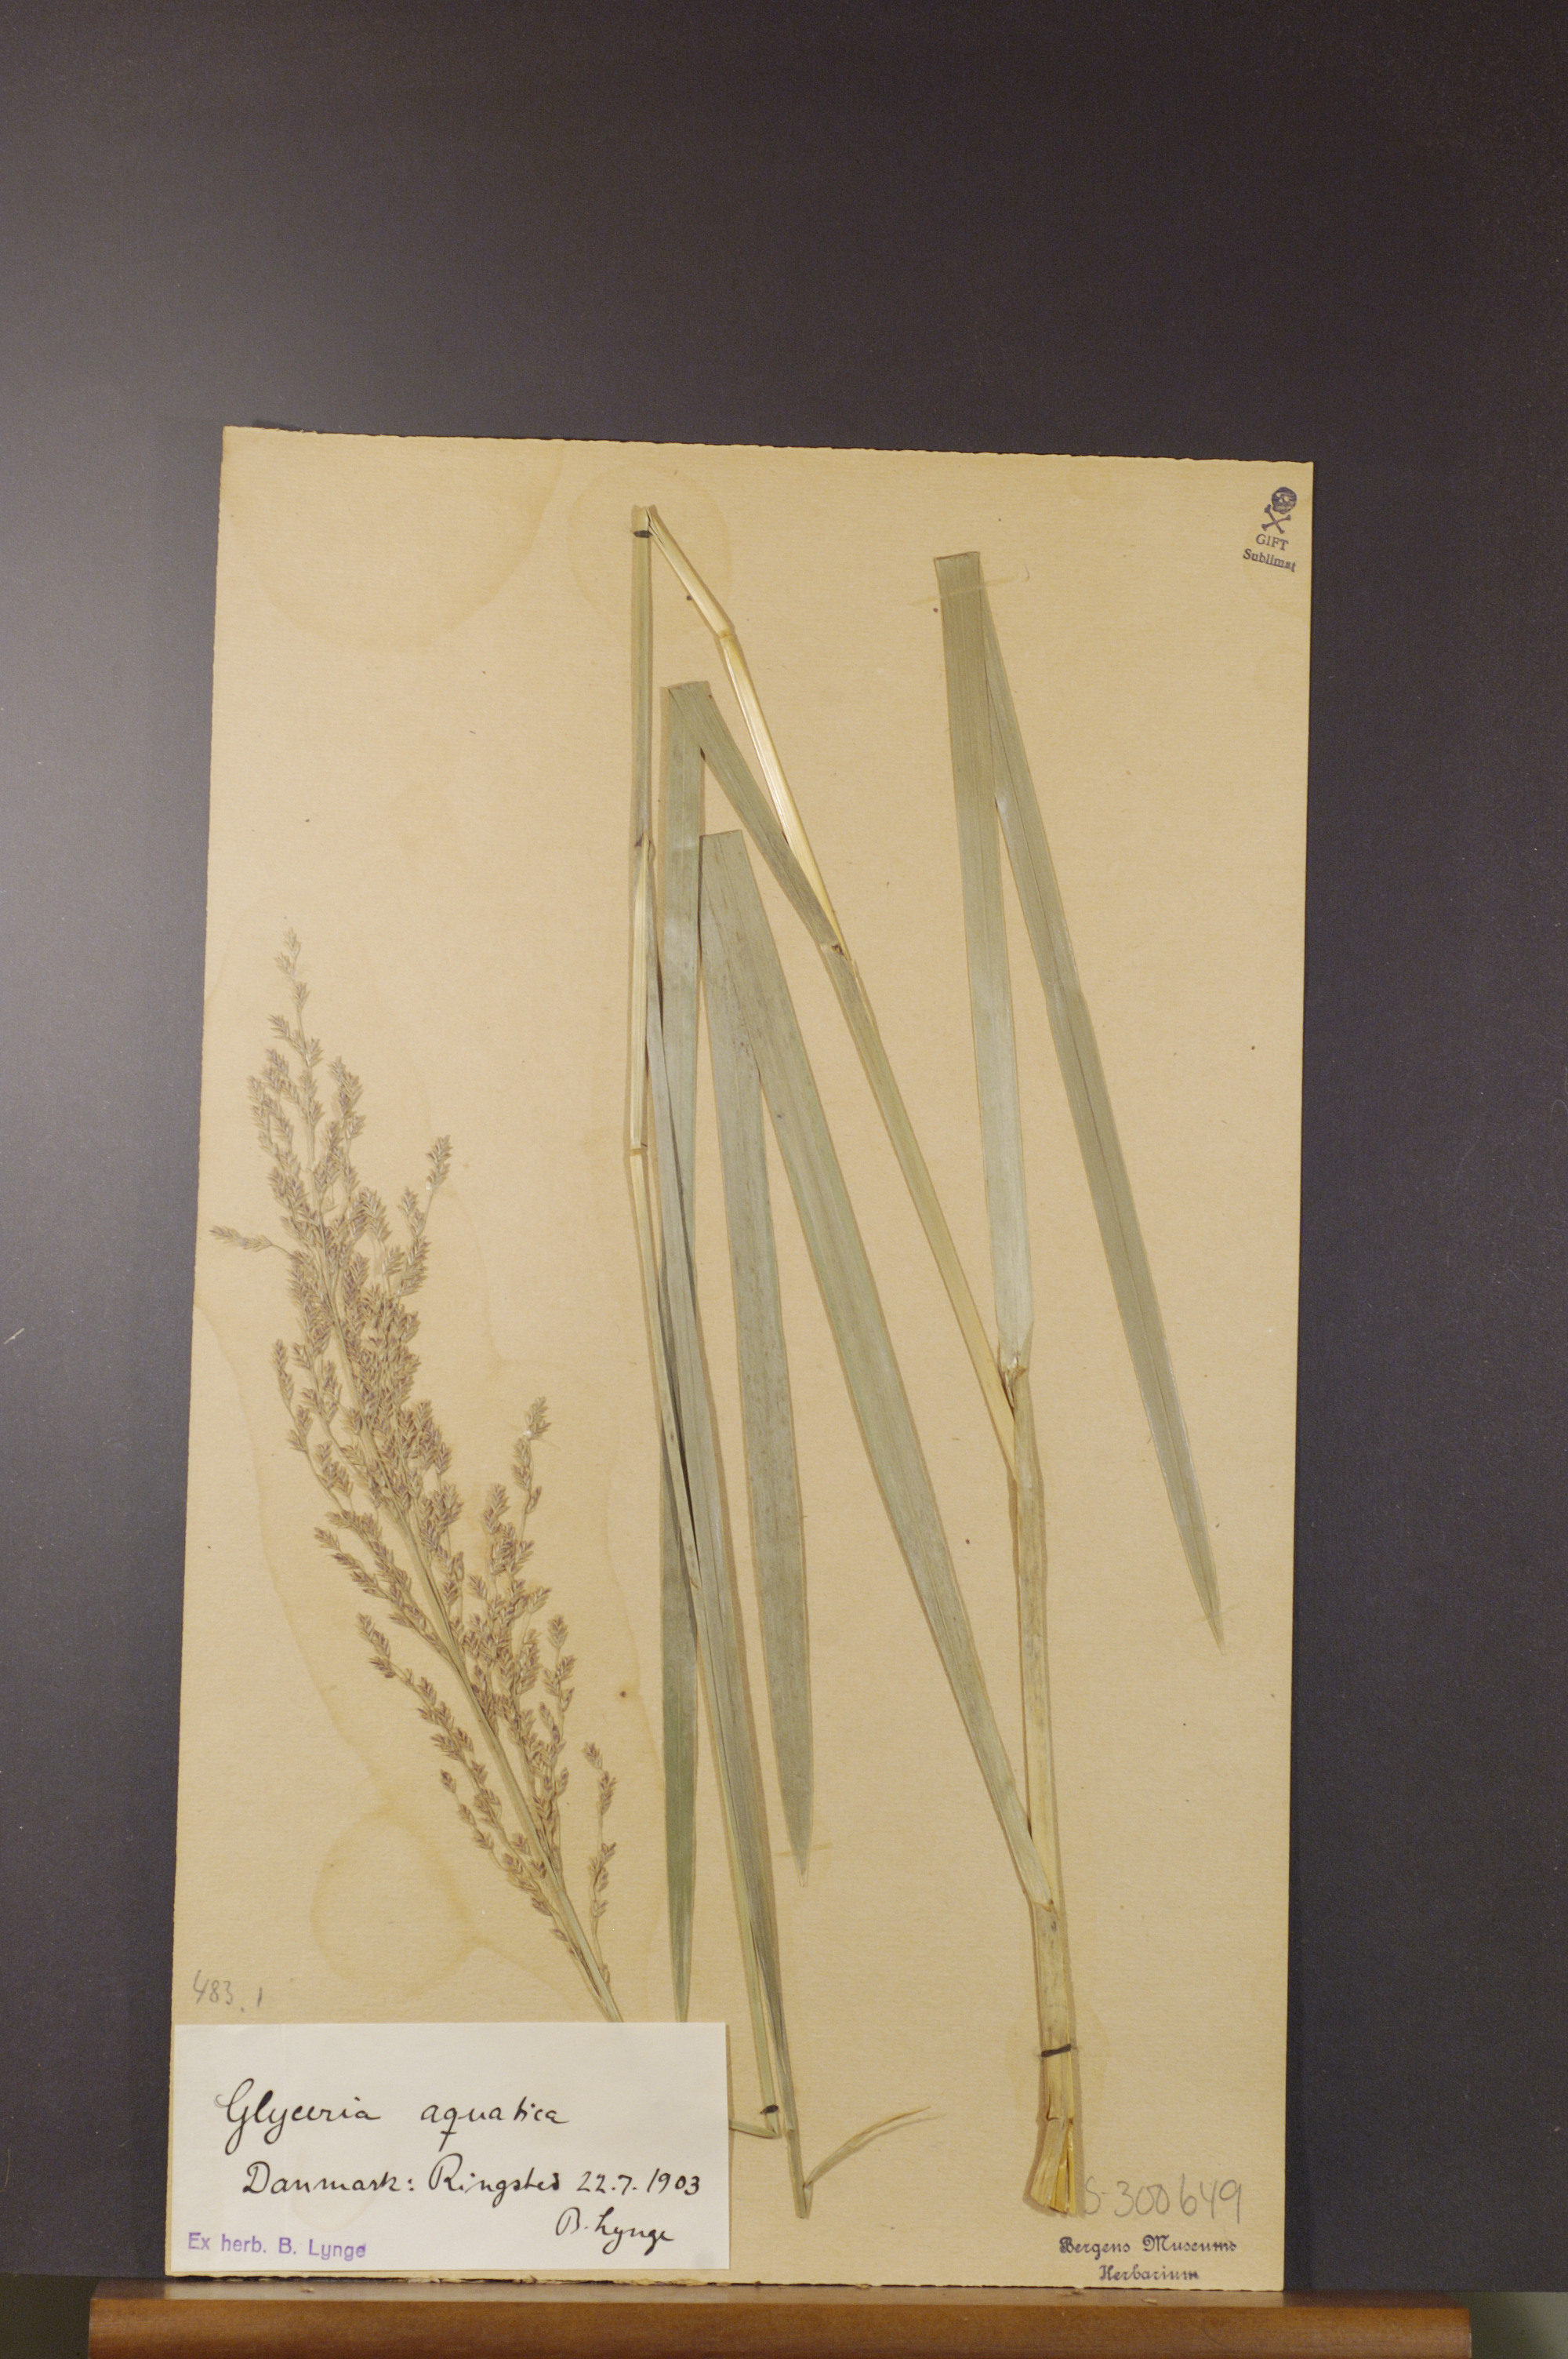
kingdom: Plantae
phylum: Tracheophyta
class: Liliopsida
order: Poales
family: Poaceae
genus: Glyceria
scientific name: Glyceria maxima
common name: Reed mannagrass
